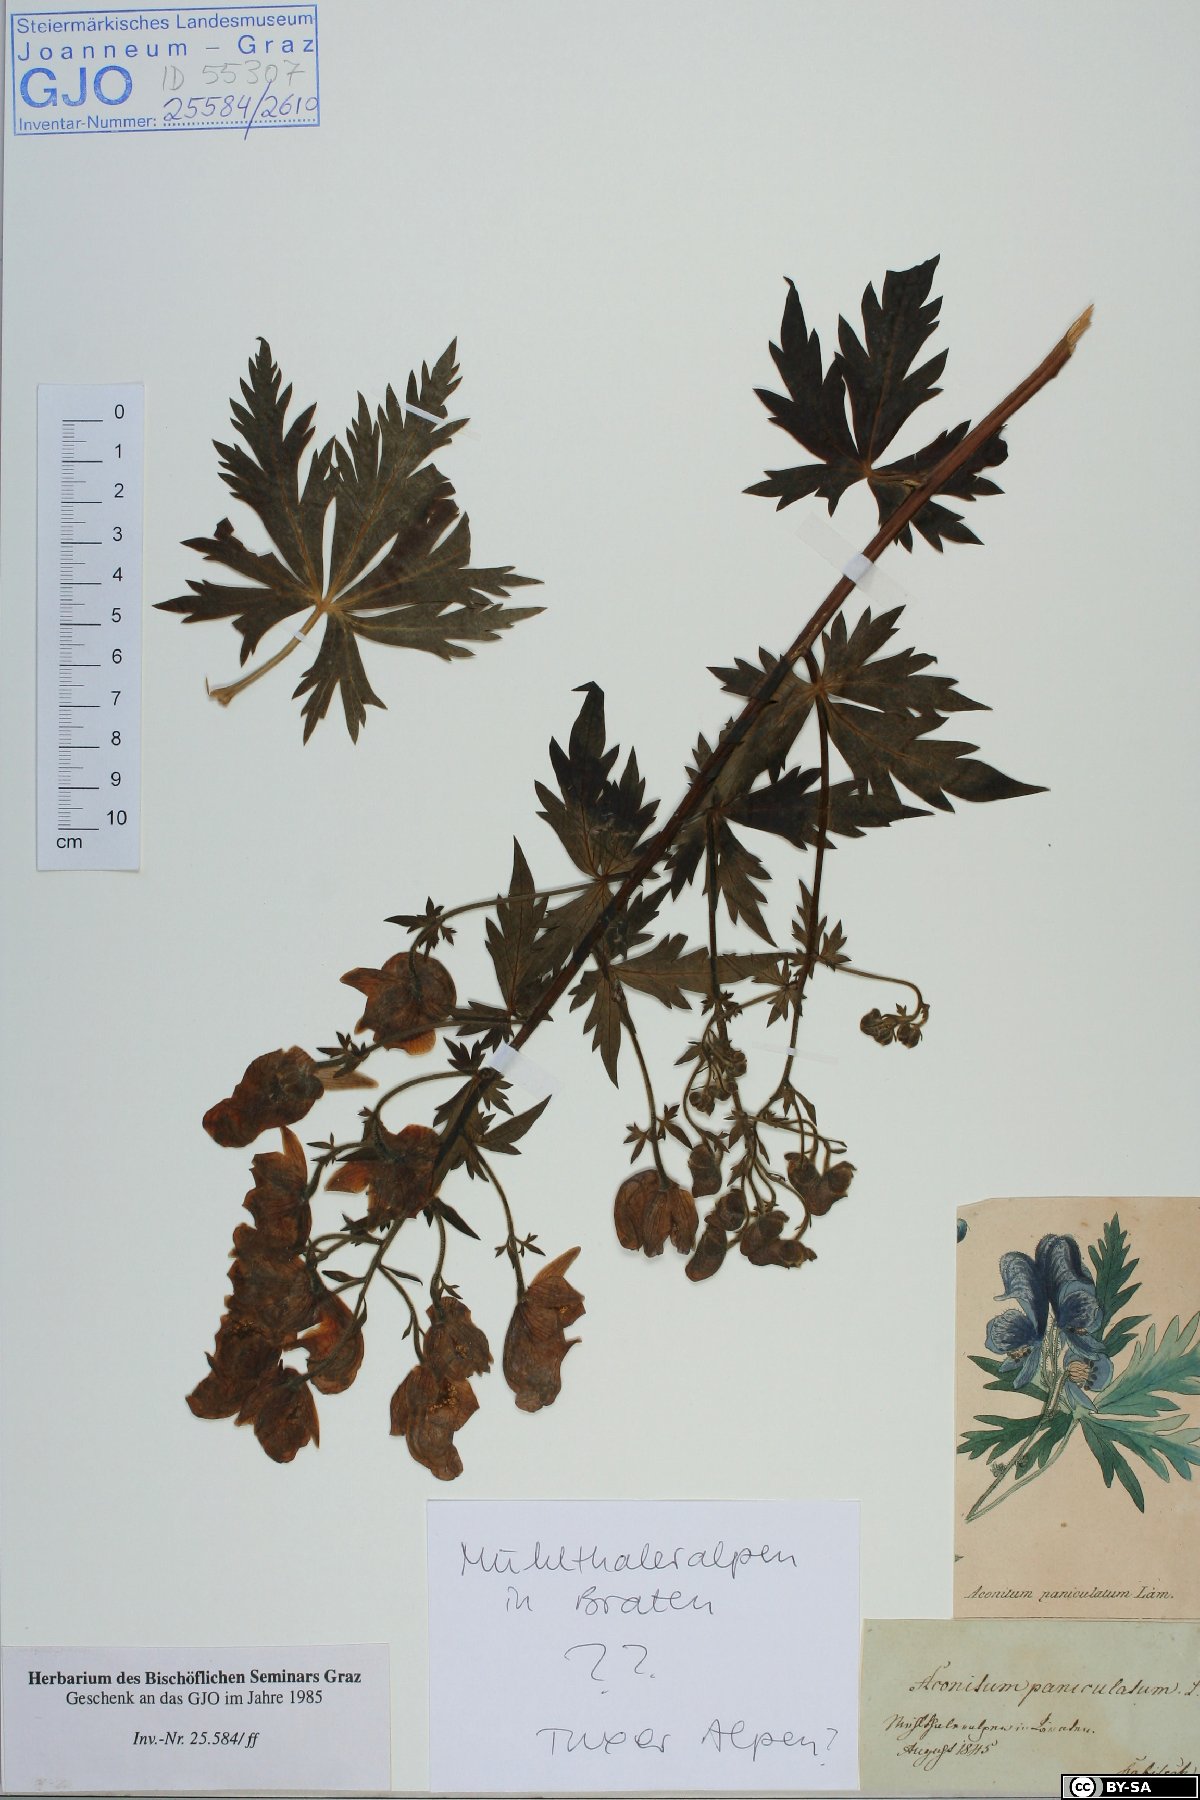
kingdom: Plantae
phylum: Tracheophyta
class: Magnoliopsida
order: Ranunculales
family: Ranunculaceae
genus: Aconitum
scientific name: Aconitum degenii
